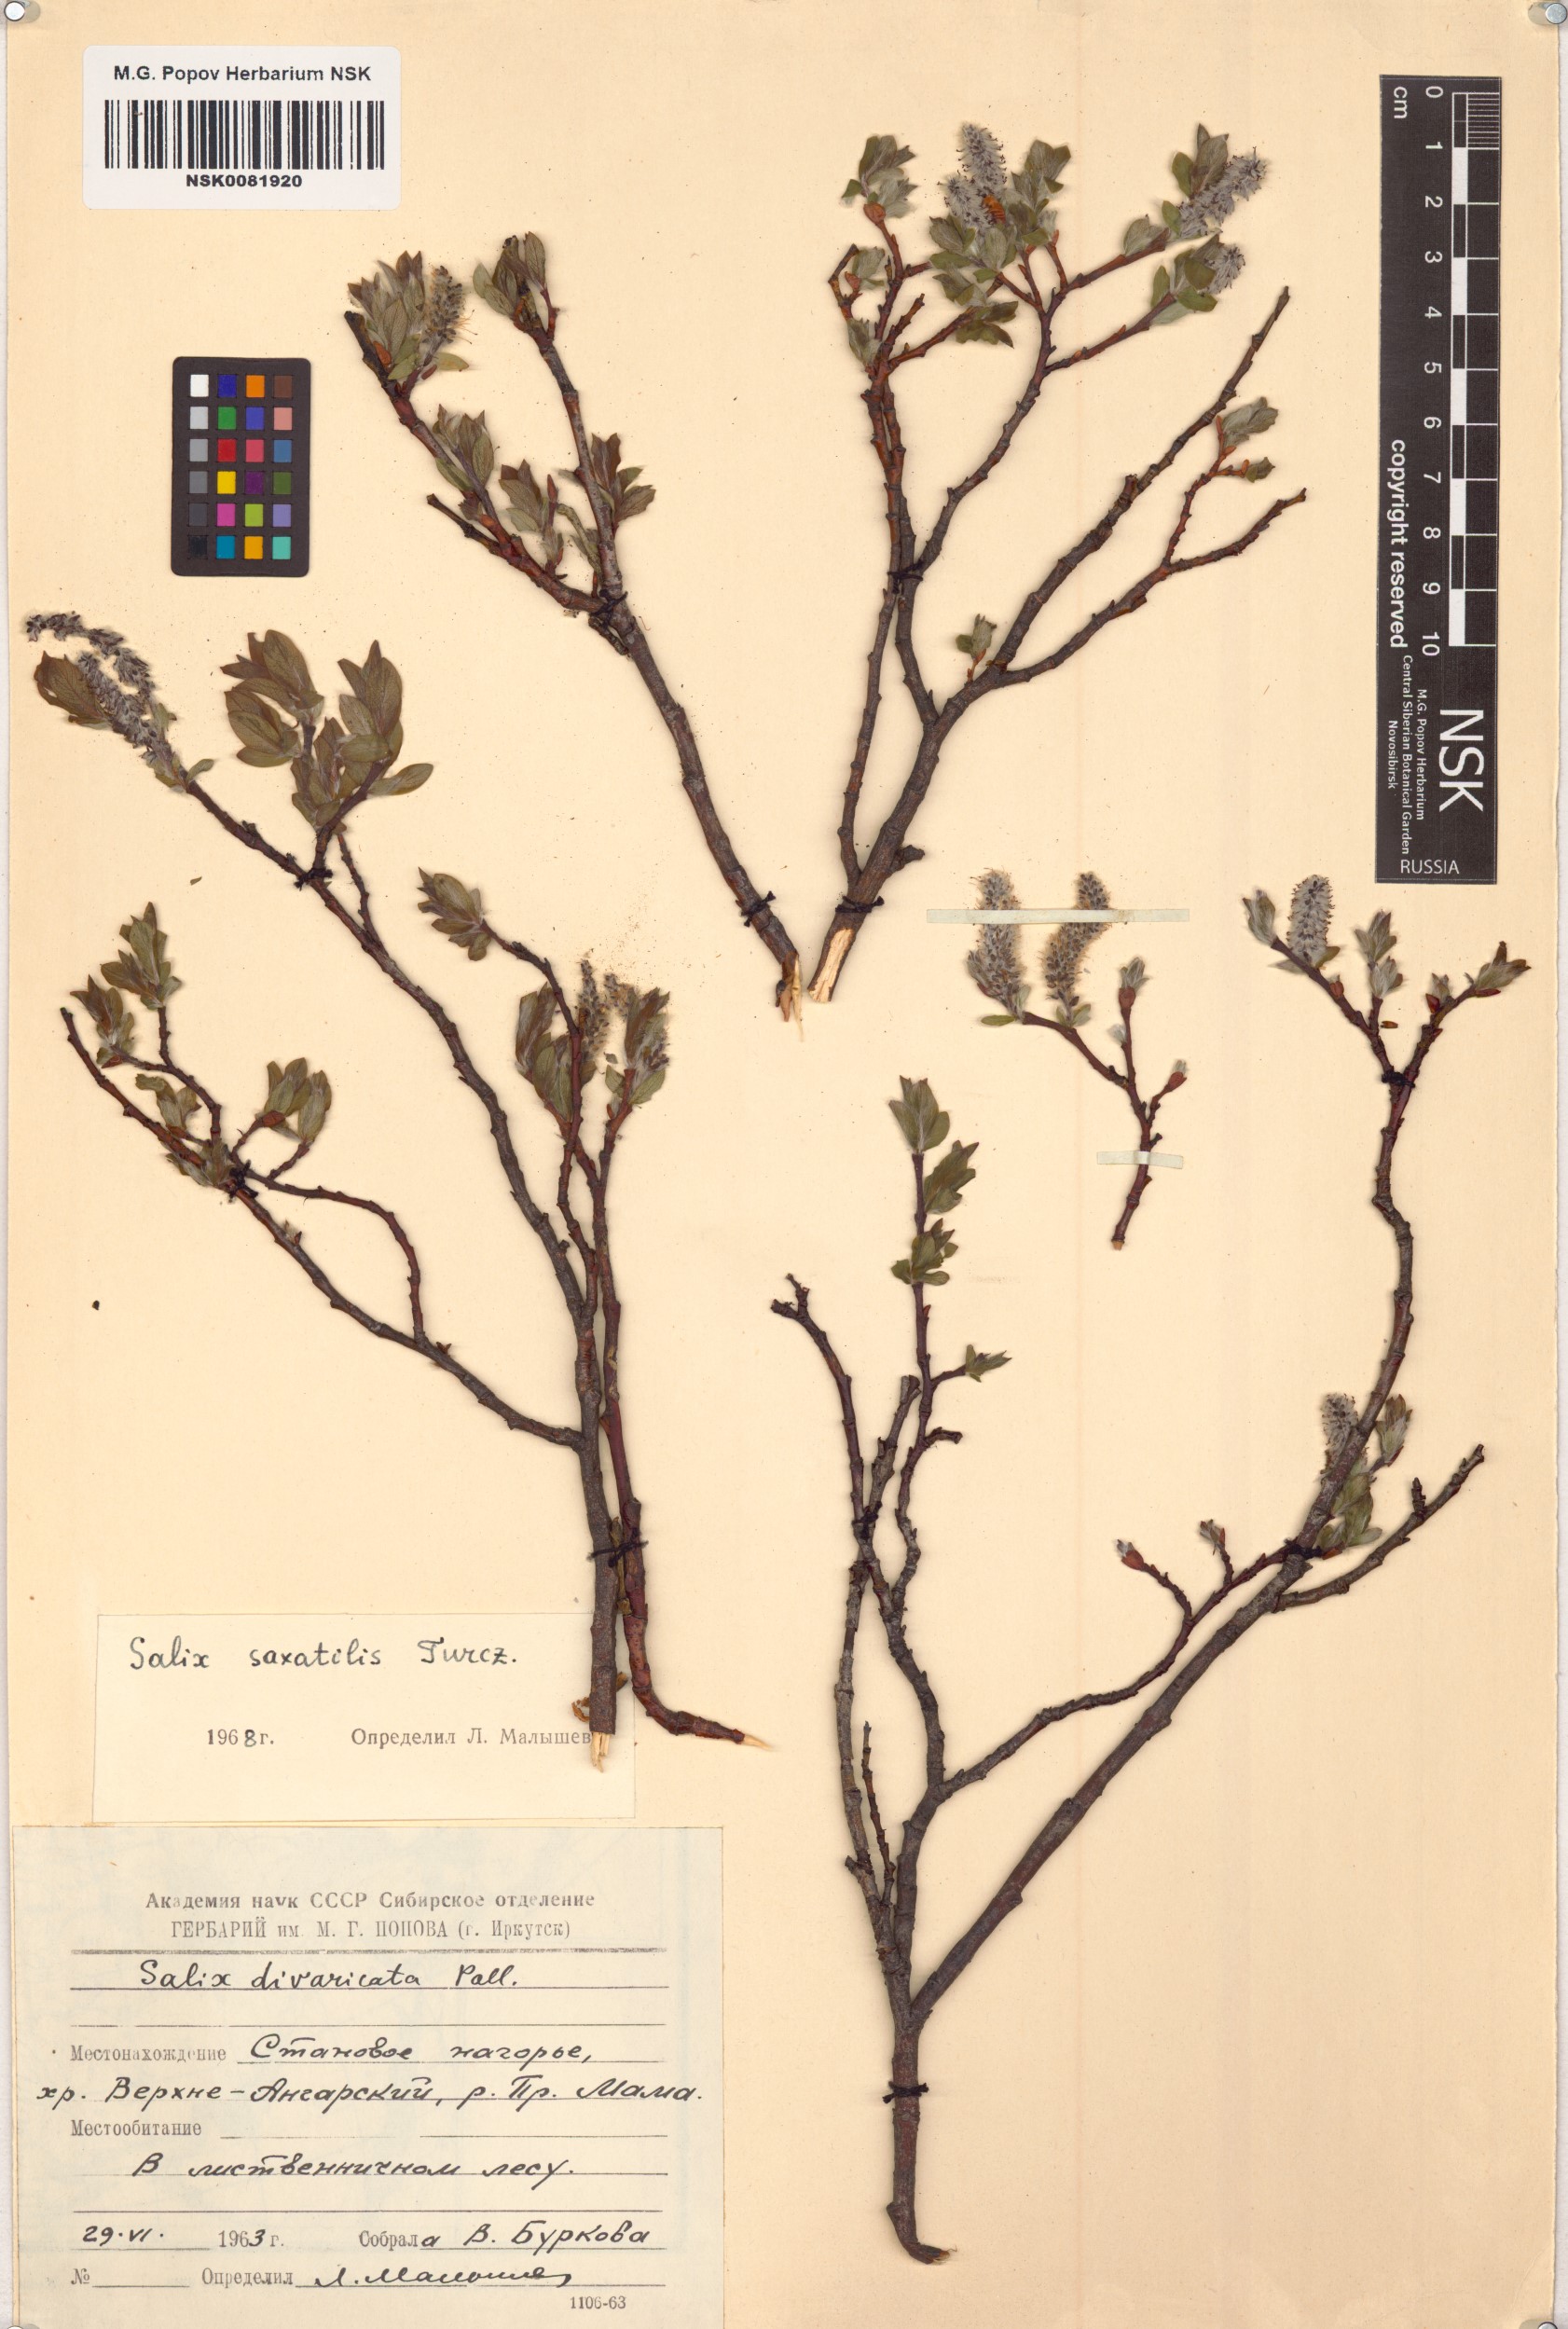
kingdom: Plantae
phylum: Tracheophyta
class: Magnoliopsida
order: Malpighiales
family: Salicaceae
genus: Salix
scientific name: Salix saxatilis
